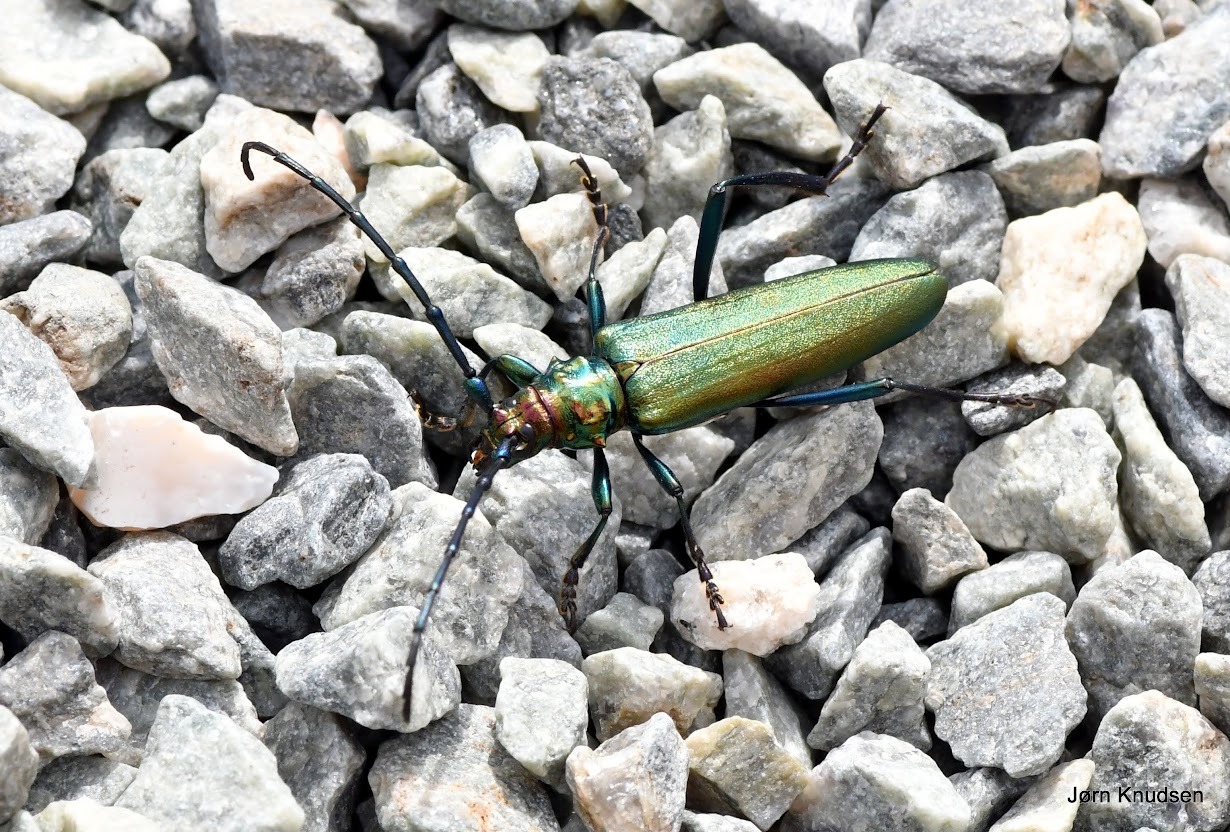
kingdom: Animalia
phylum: Arthropoda
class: Insecta
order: Coleoptera
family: Cerambycidae
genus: Aromia
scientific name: Aromia moschata
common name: Moskusbuk
